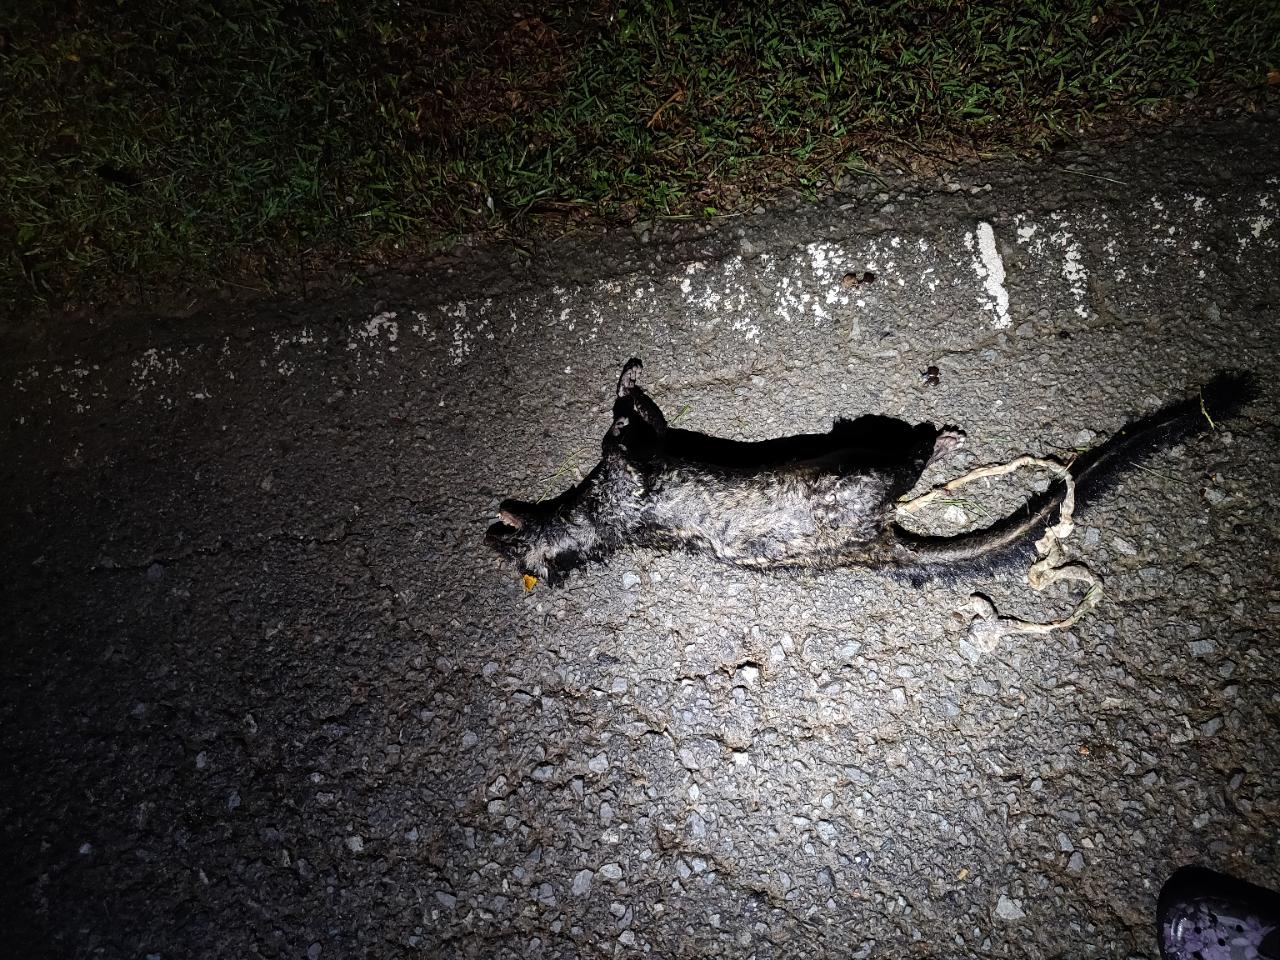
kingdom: Animalia
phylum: Chordata
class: Mammalia
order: Carnivora
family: Viverridae
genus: Paradoxurus
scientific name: Paradoxurus hermaphroditus
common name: Common palm civet
